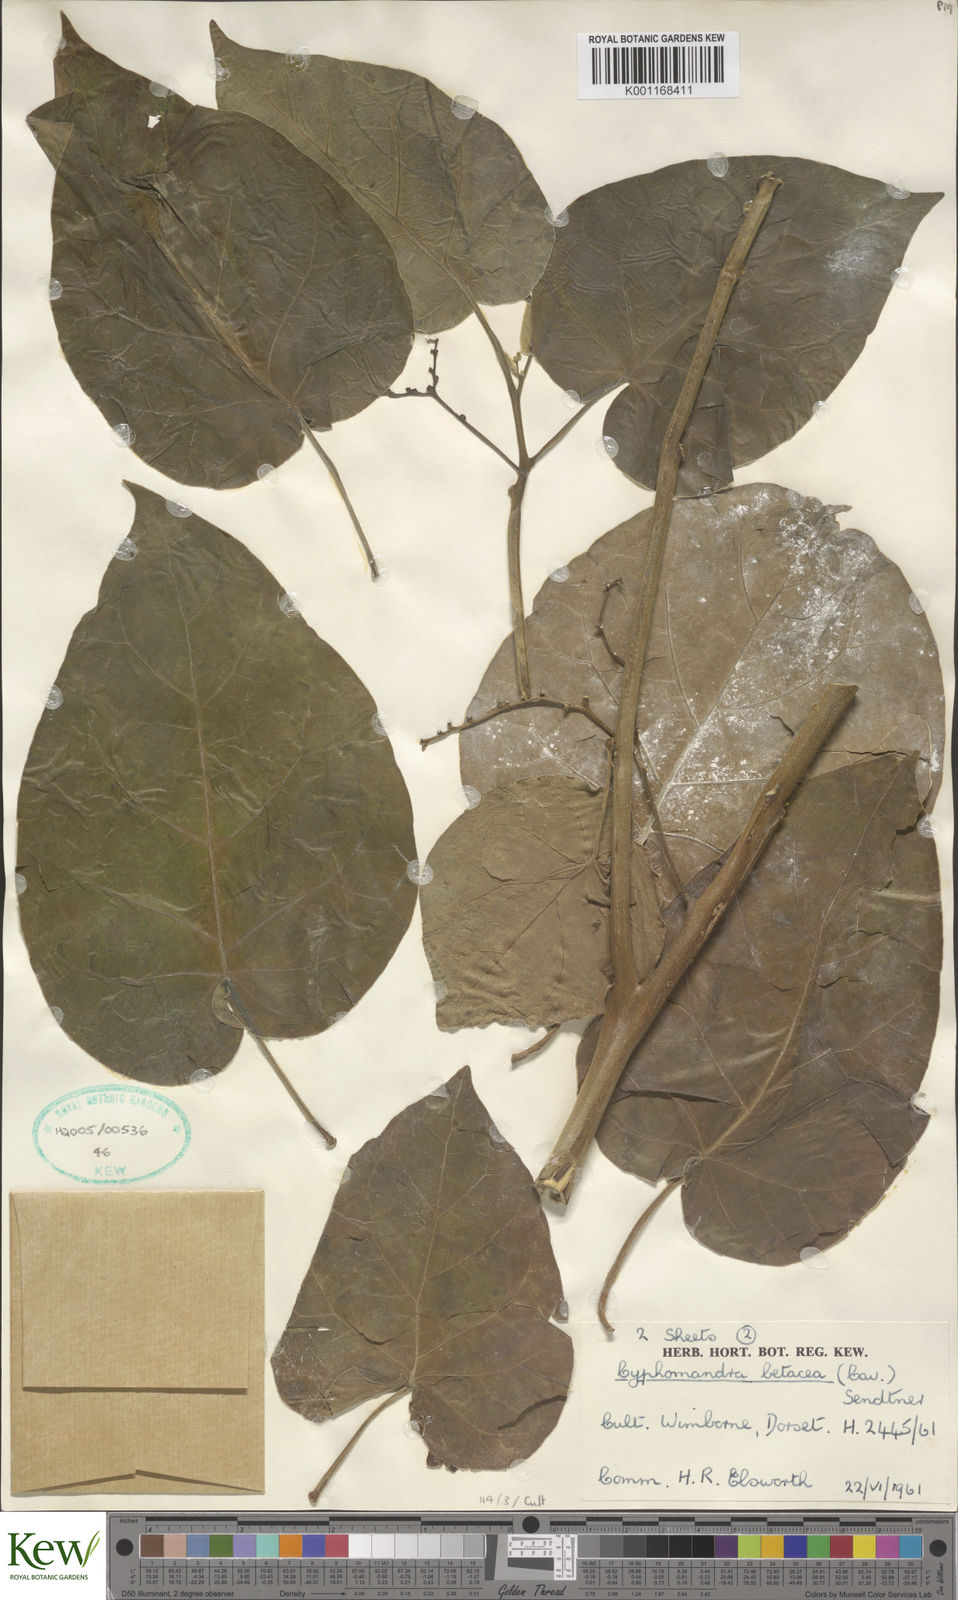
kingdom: Plantae
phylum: Tracheophyta
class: Magnoliopsida
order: Solanales
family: Solanaceae
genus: Solanum
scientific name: Solanum betaceum
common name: Tamarillo
